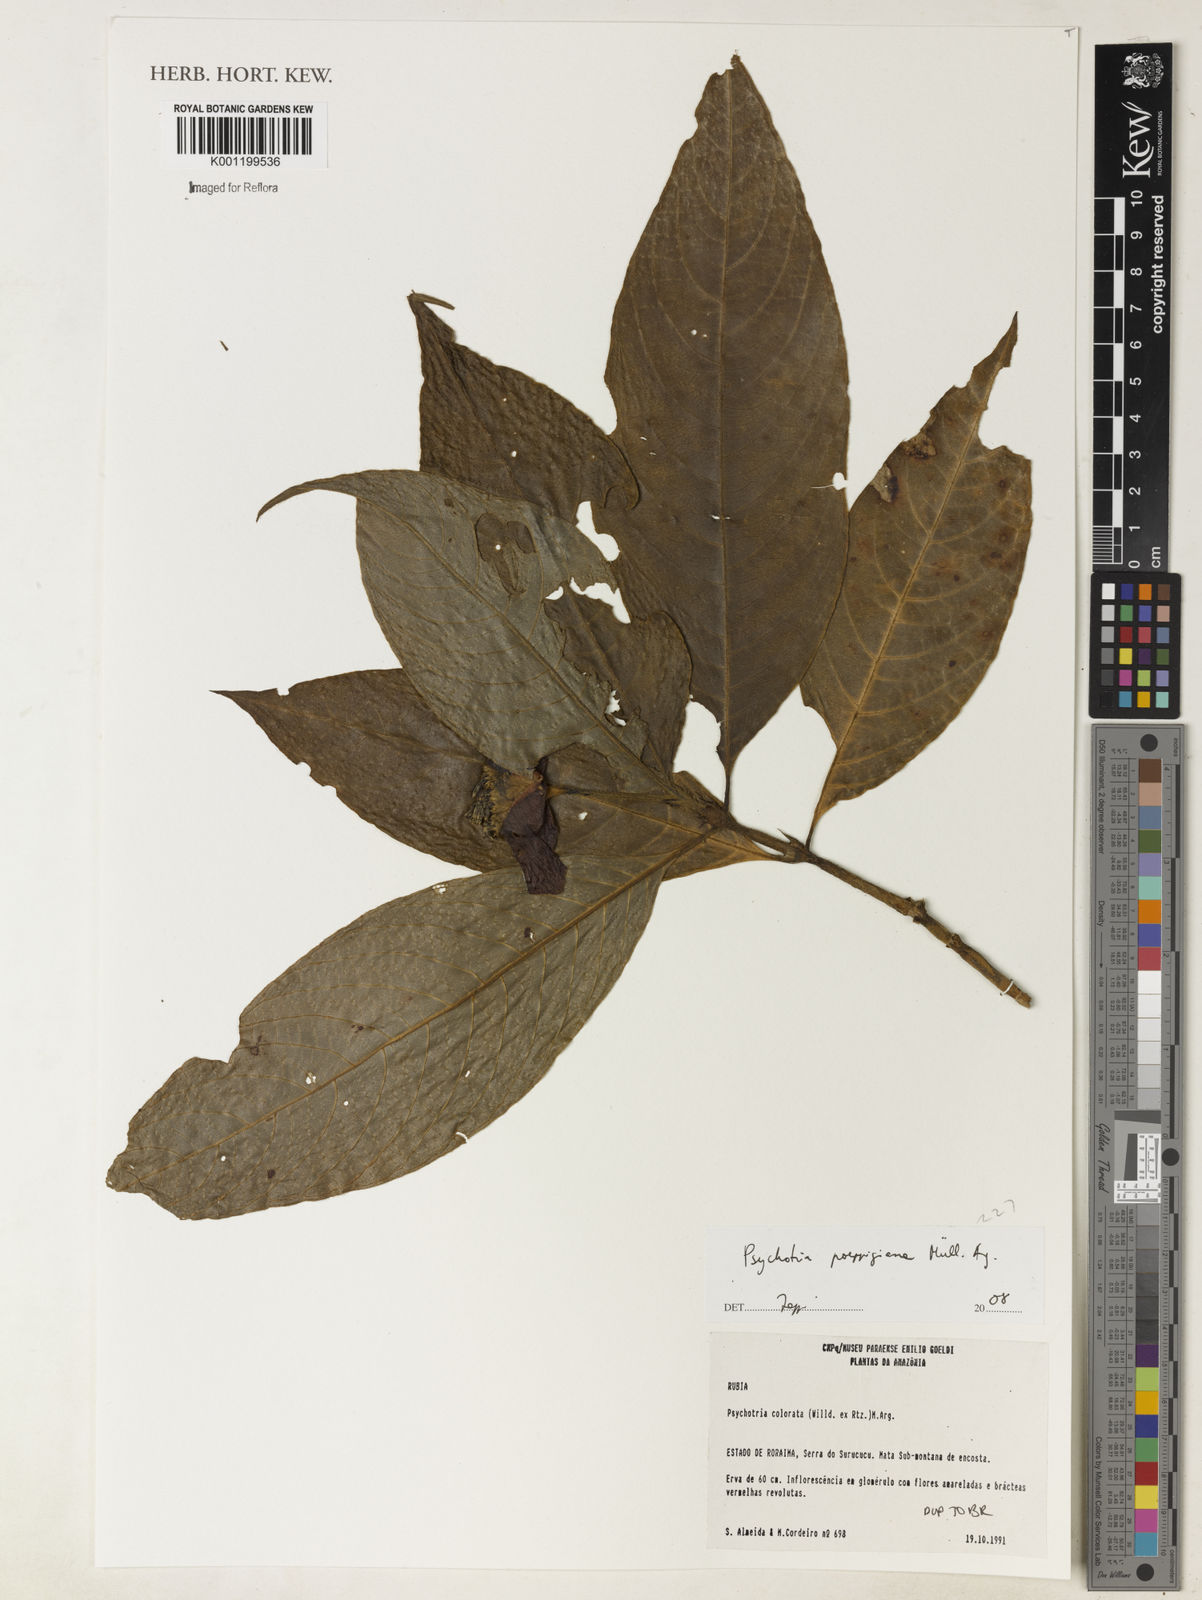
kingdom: Plantae
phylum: Tracheophyta
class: Magnoliopsida
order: Gentianales
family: Rubiaceae
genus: Psychotria
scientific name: Psychotria
